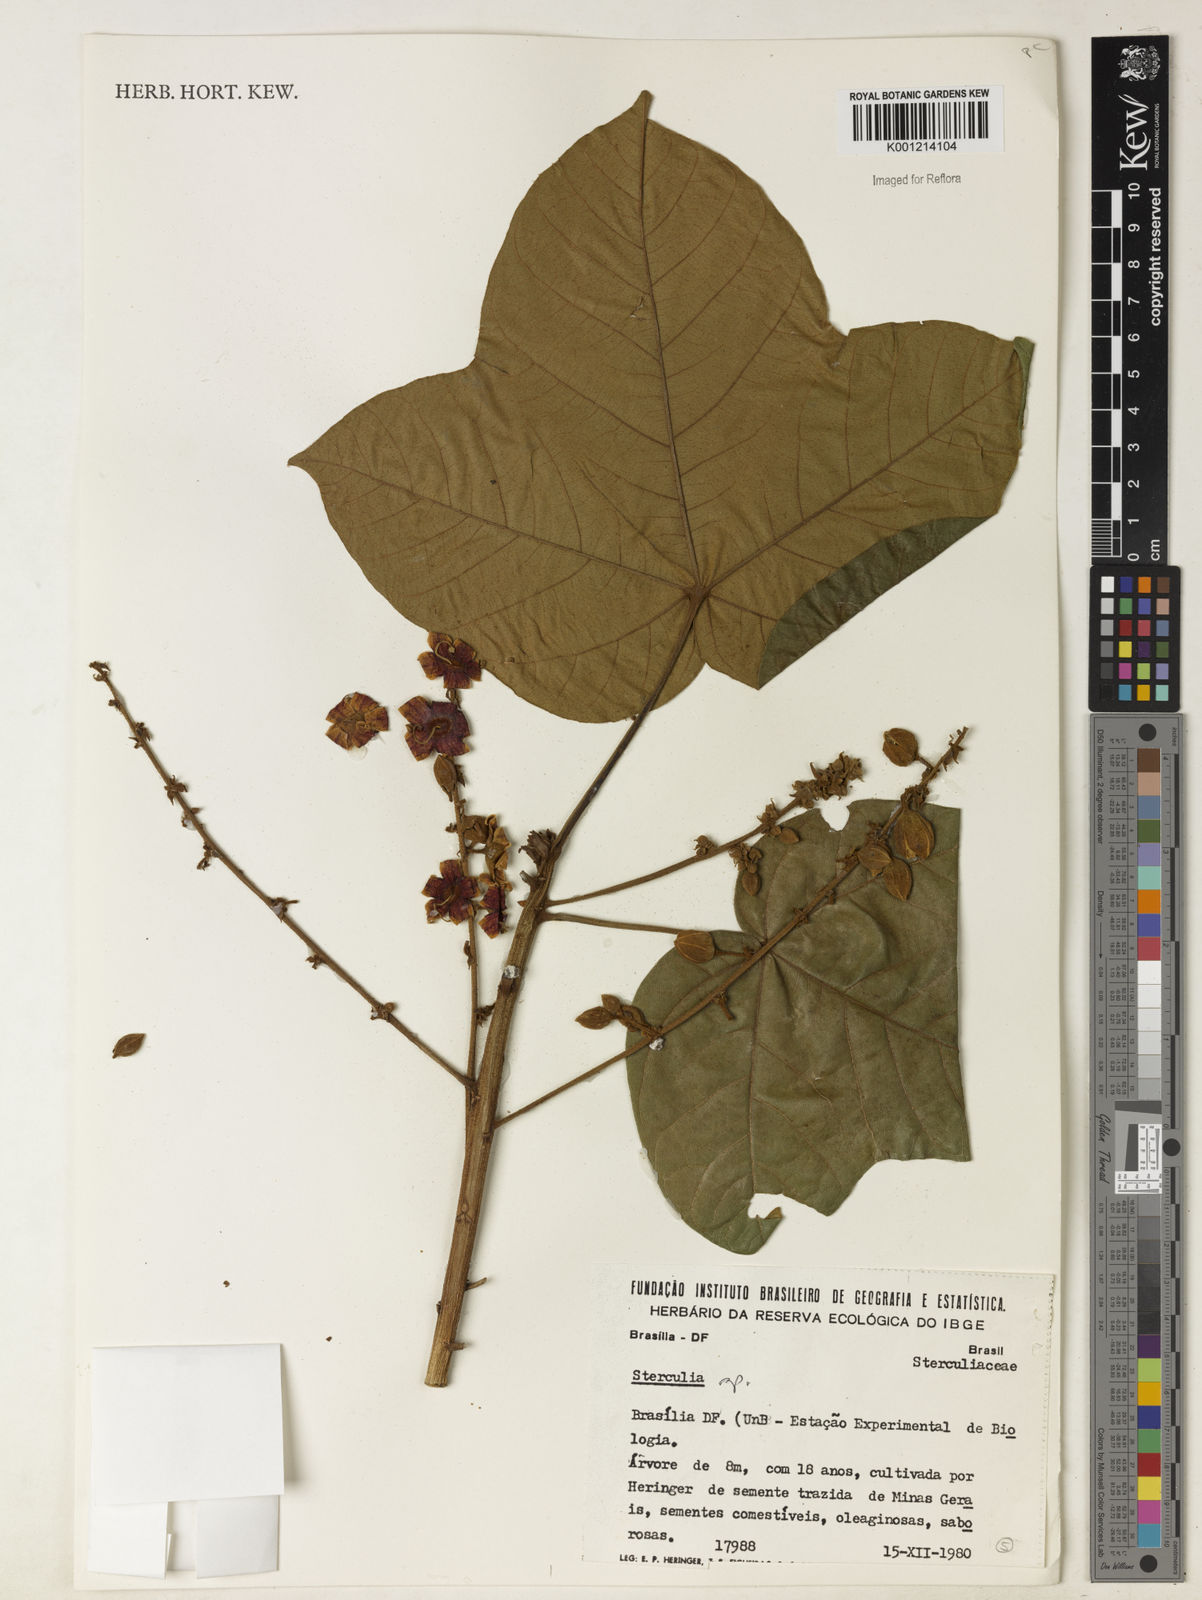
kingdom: Plantae
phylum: Tracheophyta
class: Magnoliopsida
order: Malvales
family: Malvaceae
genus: Sterculia
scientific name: Sterculia
